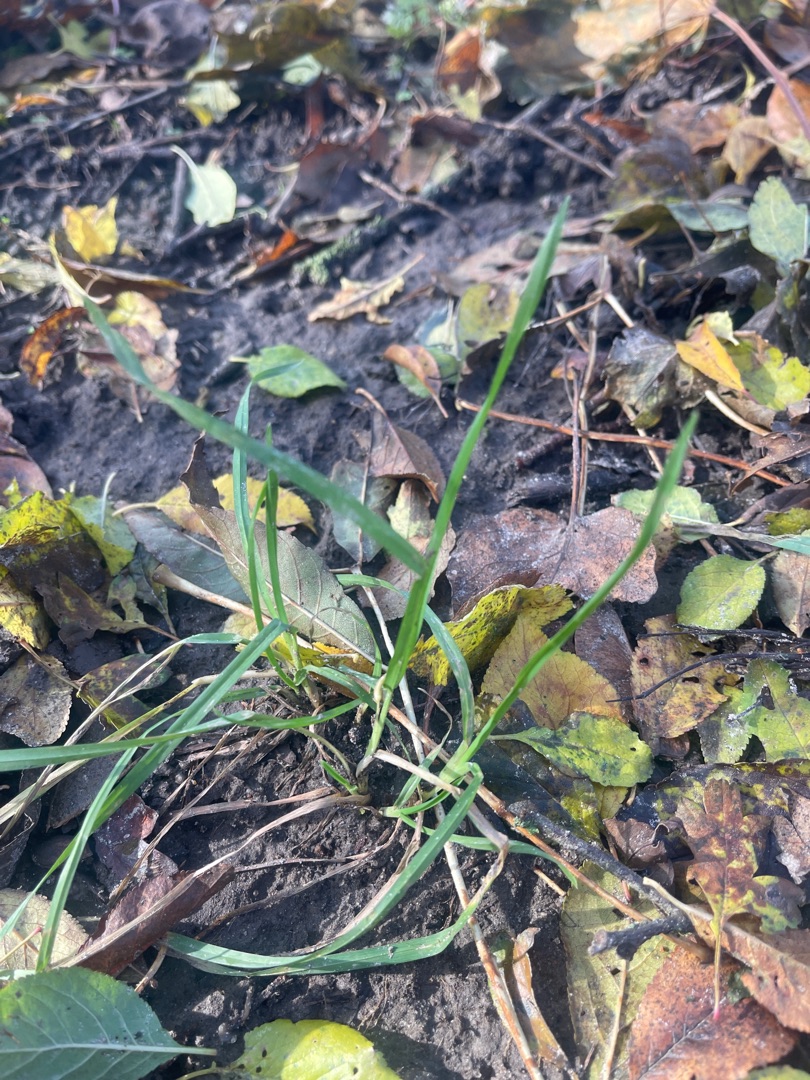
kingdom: Plantae
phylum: Tracheophyta
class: Liliopsida
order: Poales
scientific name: Poales
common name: Græsordenen
